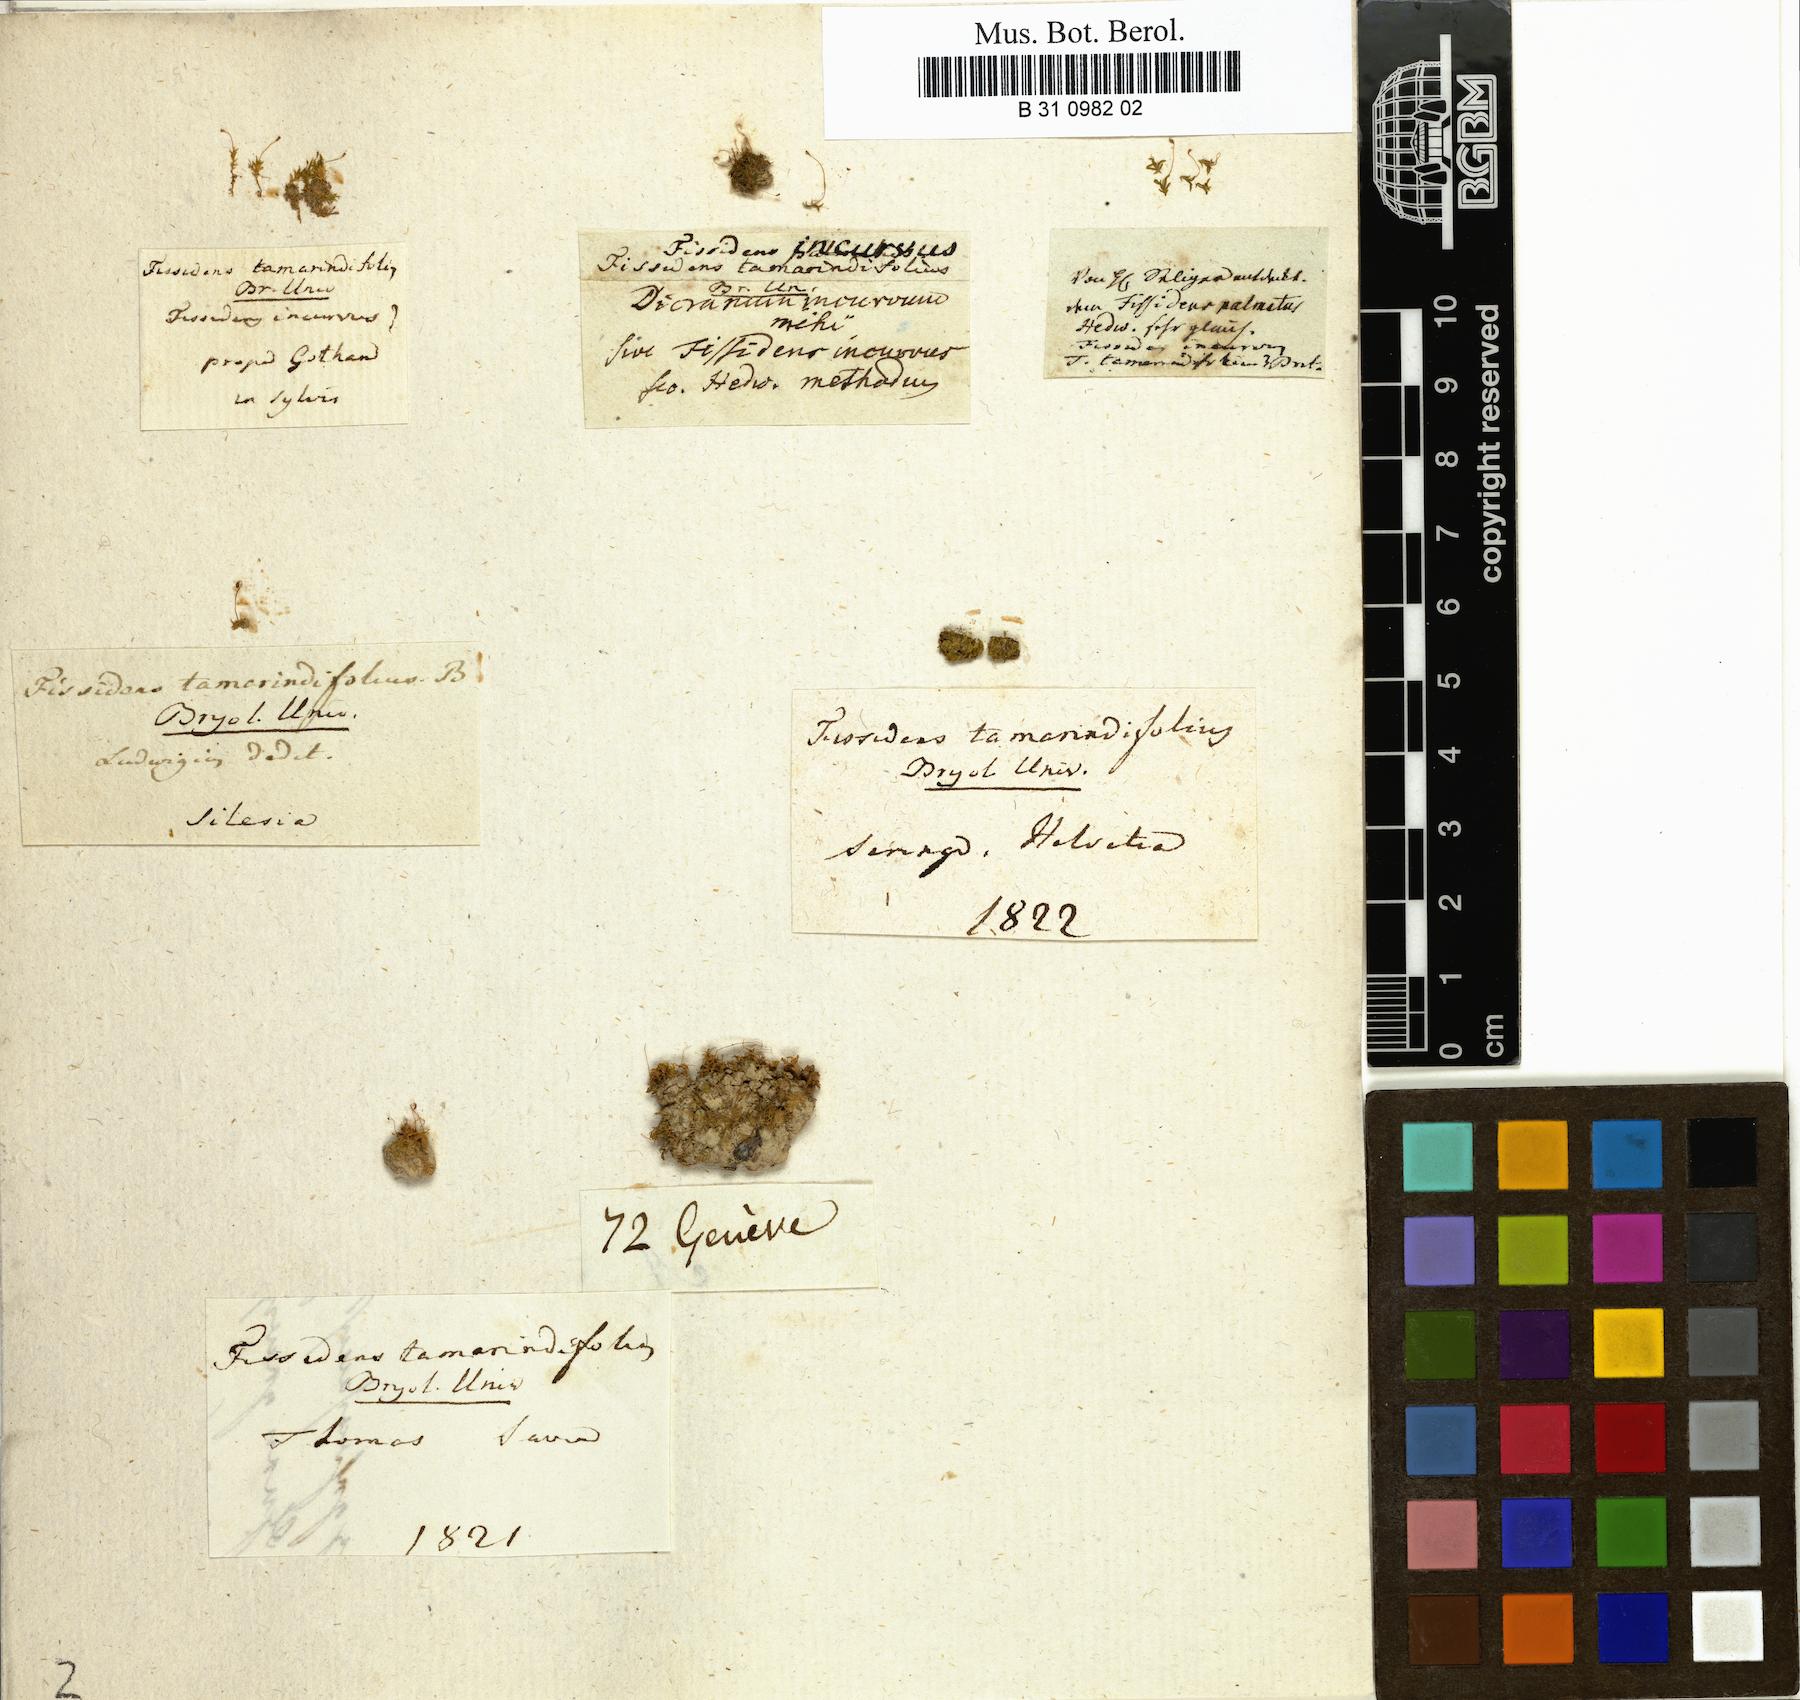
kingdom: Plantae
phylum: Bryophyta
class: Bryopsida
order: Dicranales
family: Fissidentaceae
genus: Fissidens
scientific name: Fissidens incurvus
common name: Short-leaved pocket-moss
